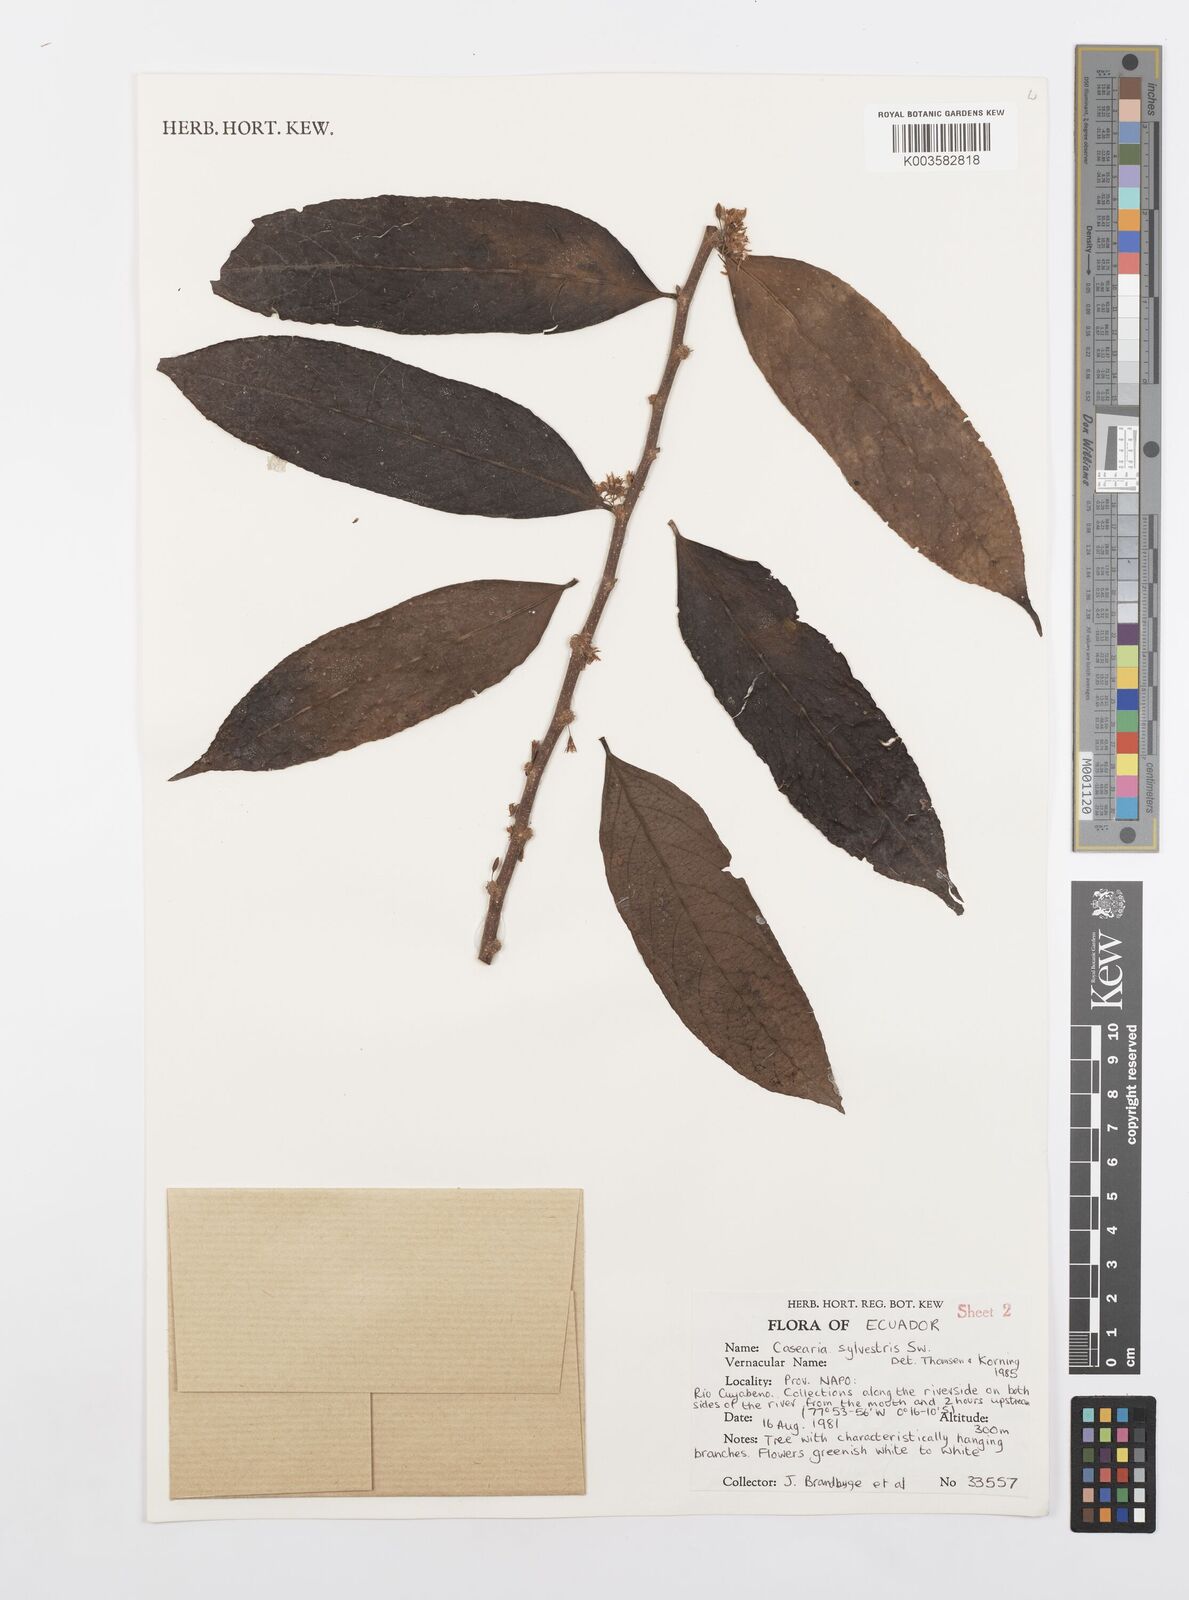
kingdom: Plantae
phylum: Tracheophyta
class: Magnoliopsida
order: Malpighiales
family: Salicaceae
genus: Casearia
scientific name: Casearia sylvestris
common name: Wild sage
